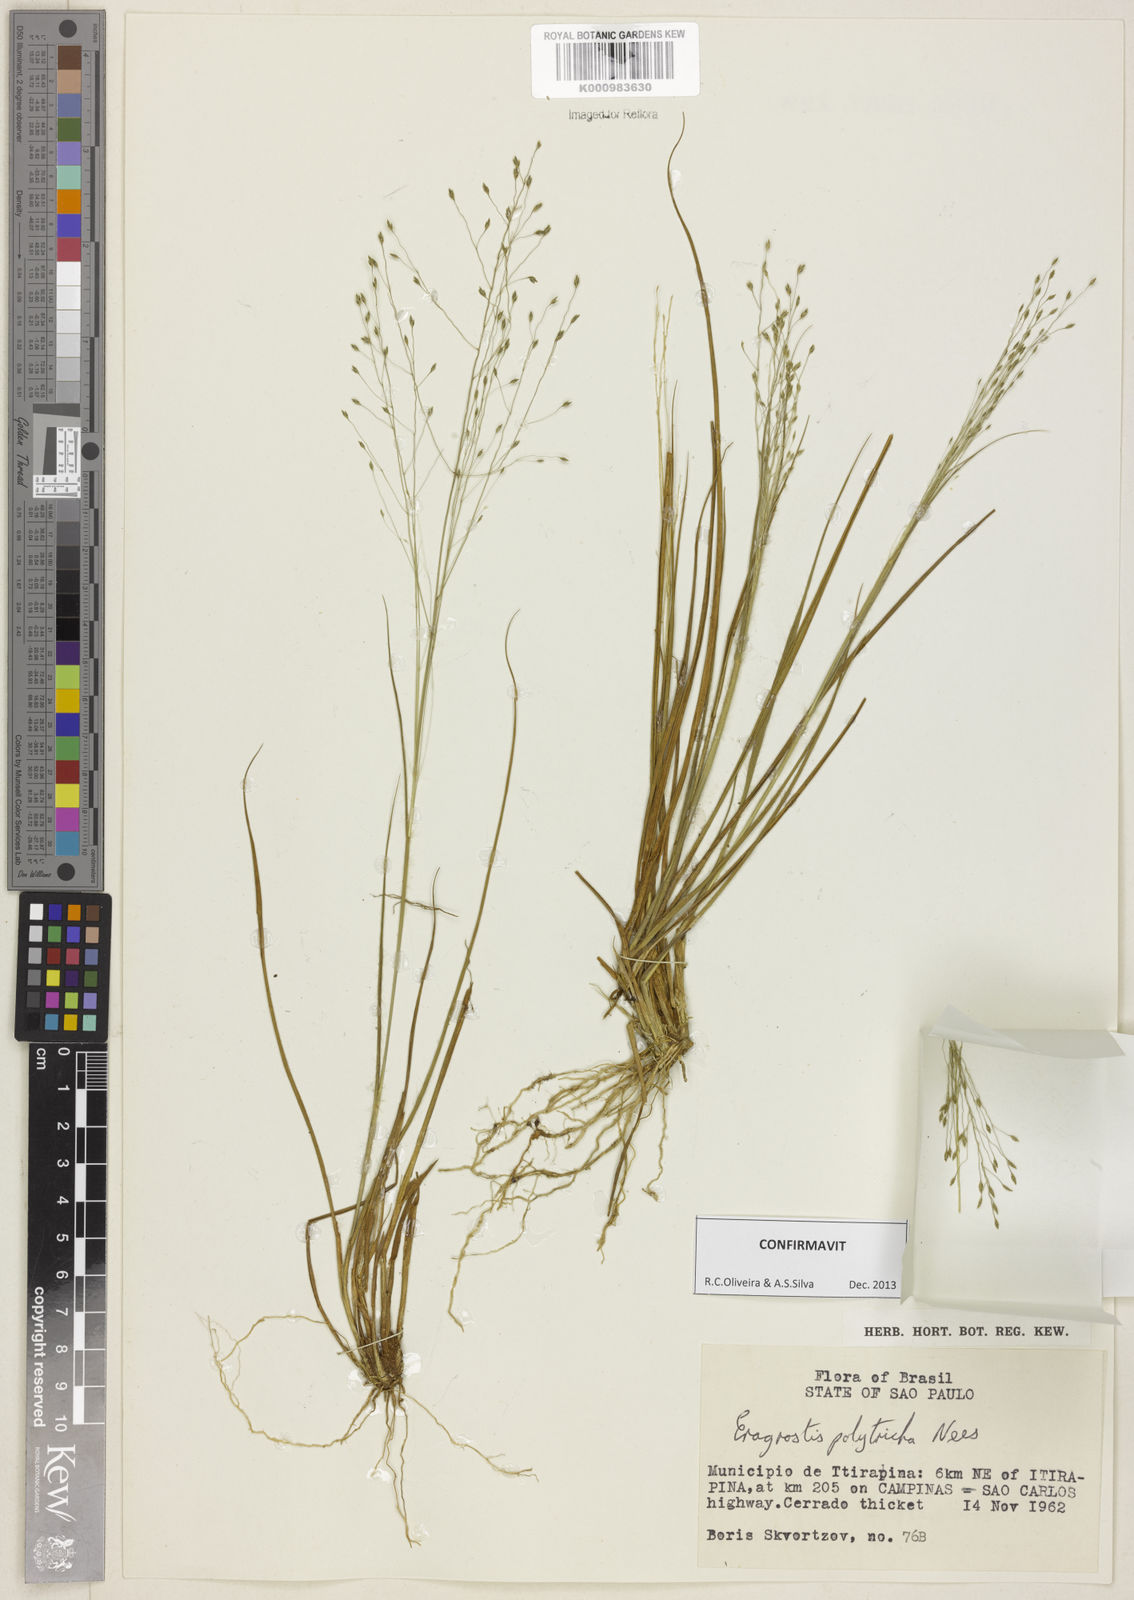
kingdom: Plantae
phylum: Tracheophyta
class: Liliopsida
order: Poales
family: Poaceae
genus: Eragrostis
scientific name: Eragrostis polytricha
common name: Hairy-sheath love grass
